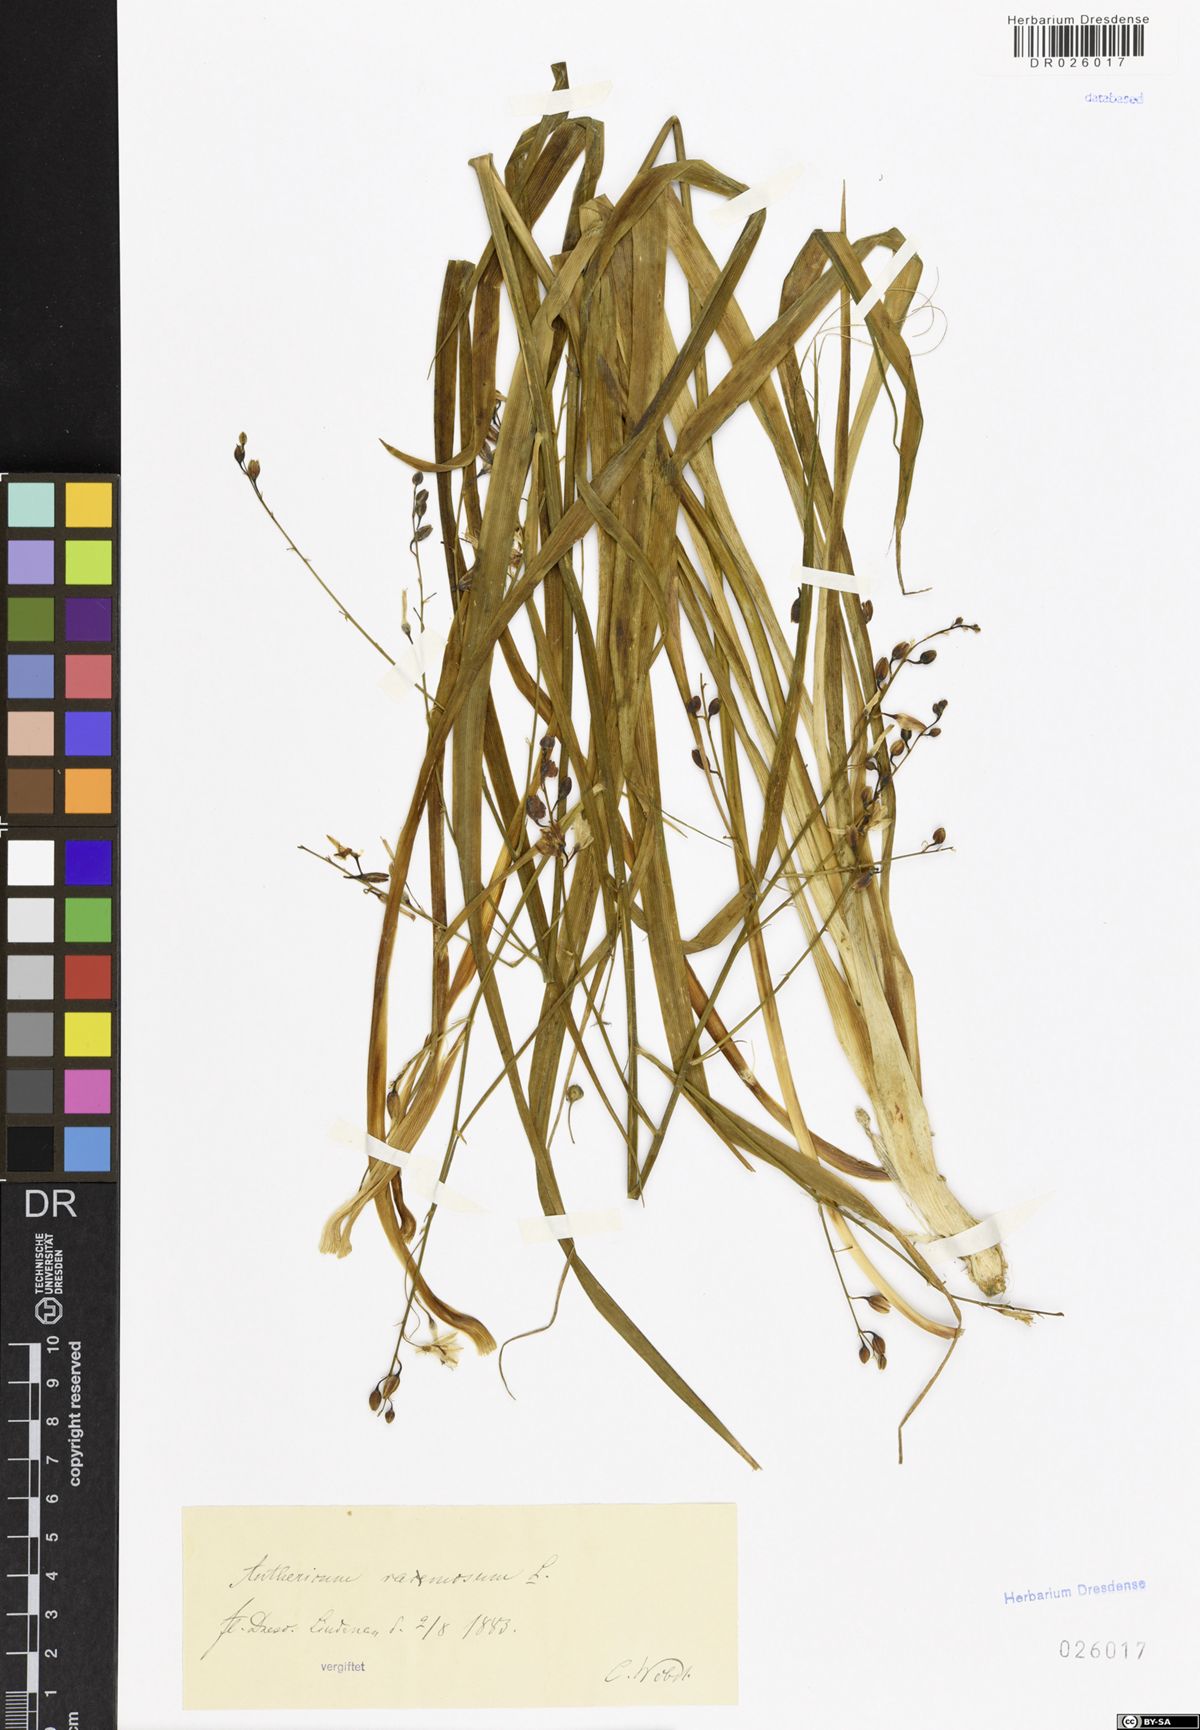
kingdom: Plantae
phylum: Tracheophyta
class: Liliopsida
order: Asparagales
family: Asparagaceae
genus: Anthericum
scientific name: Anthericum ramosum
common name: Branched st. bernard's-lily
